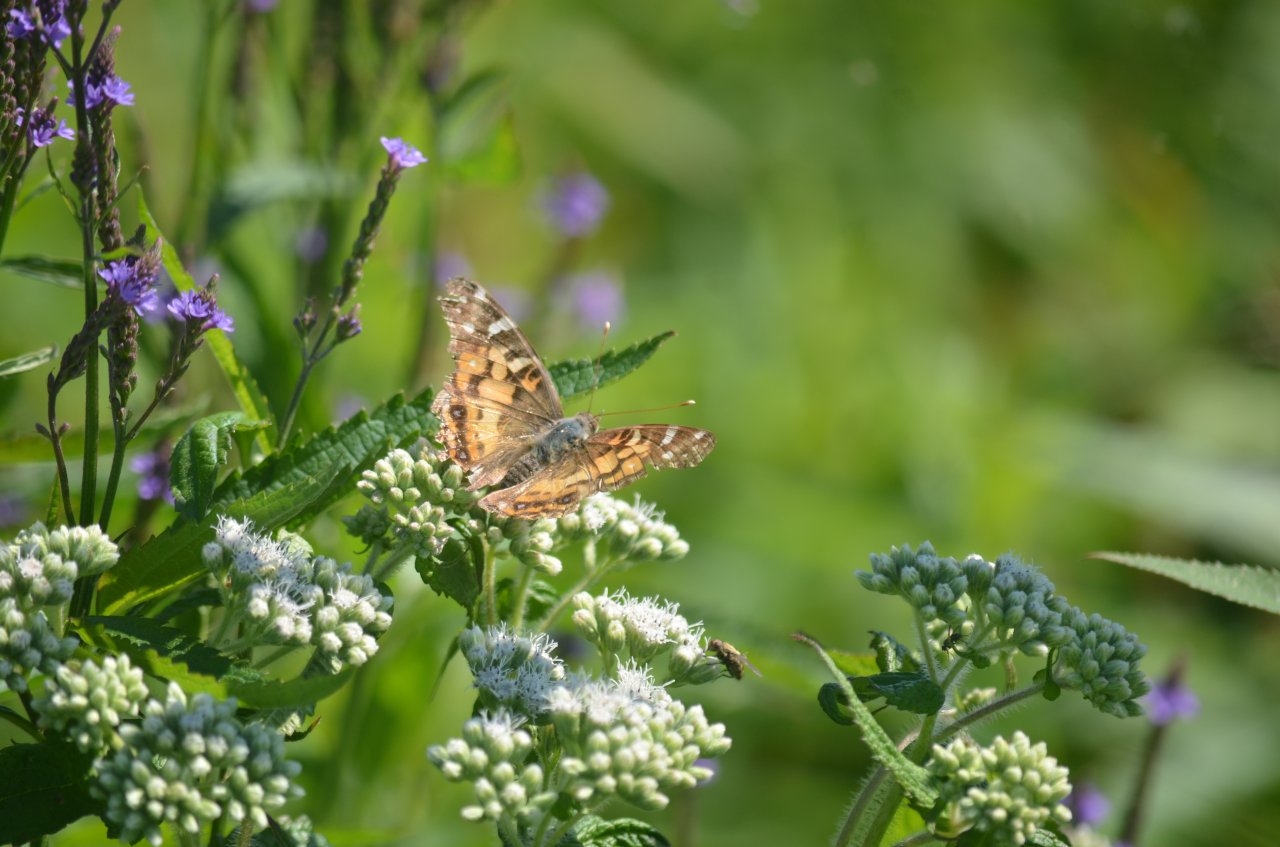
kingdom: Animalia
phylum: Arthropoda
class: Insecta
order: Lepidoptera
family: Nymphalidae
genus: Vanessa
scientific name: Vanessa virginiensis
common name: American Lady
